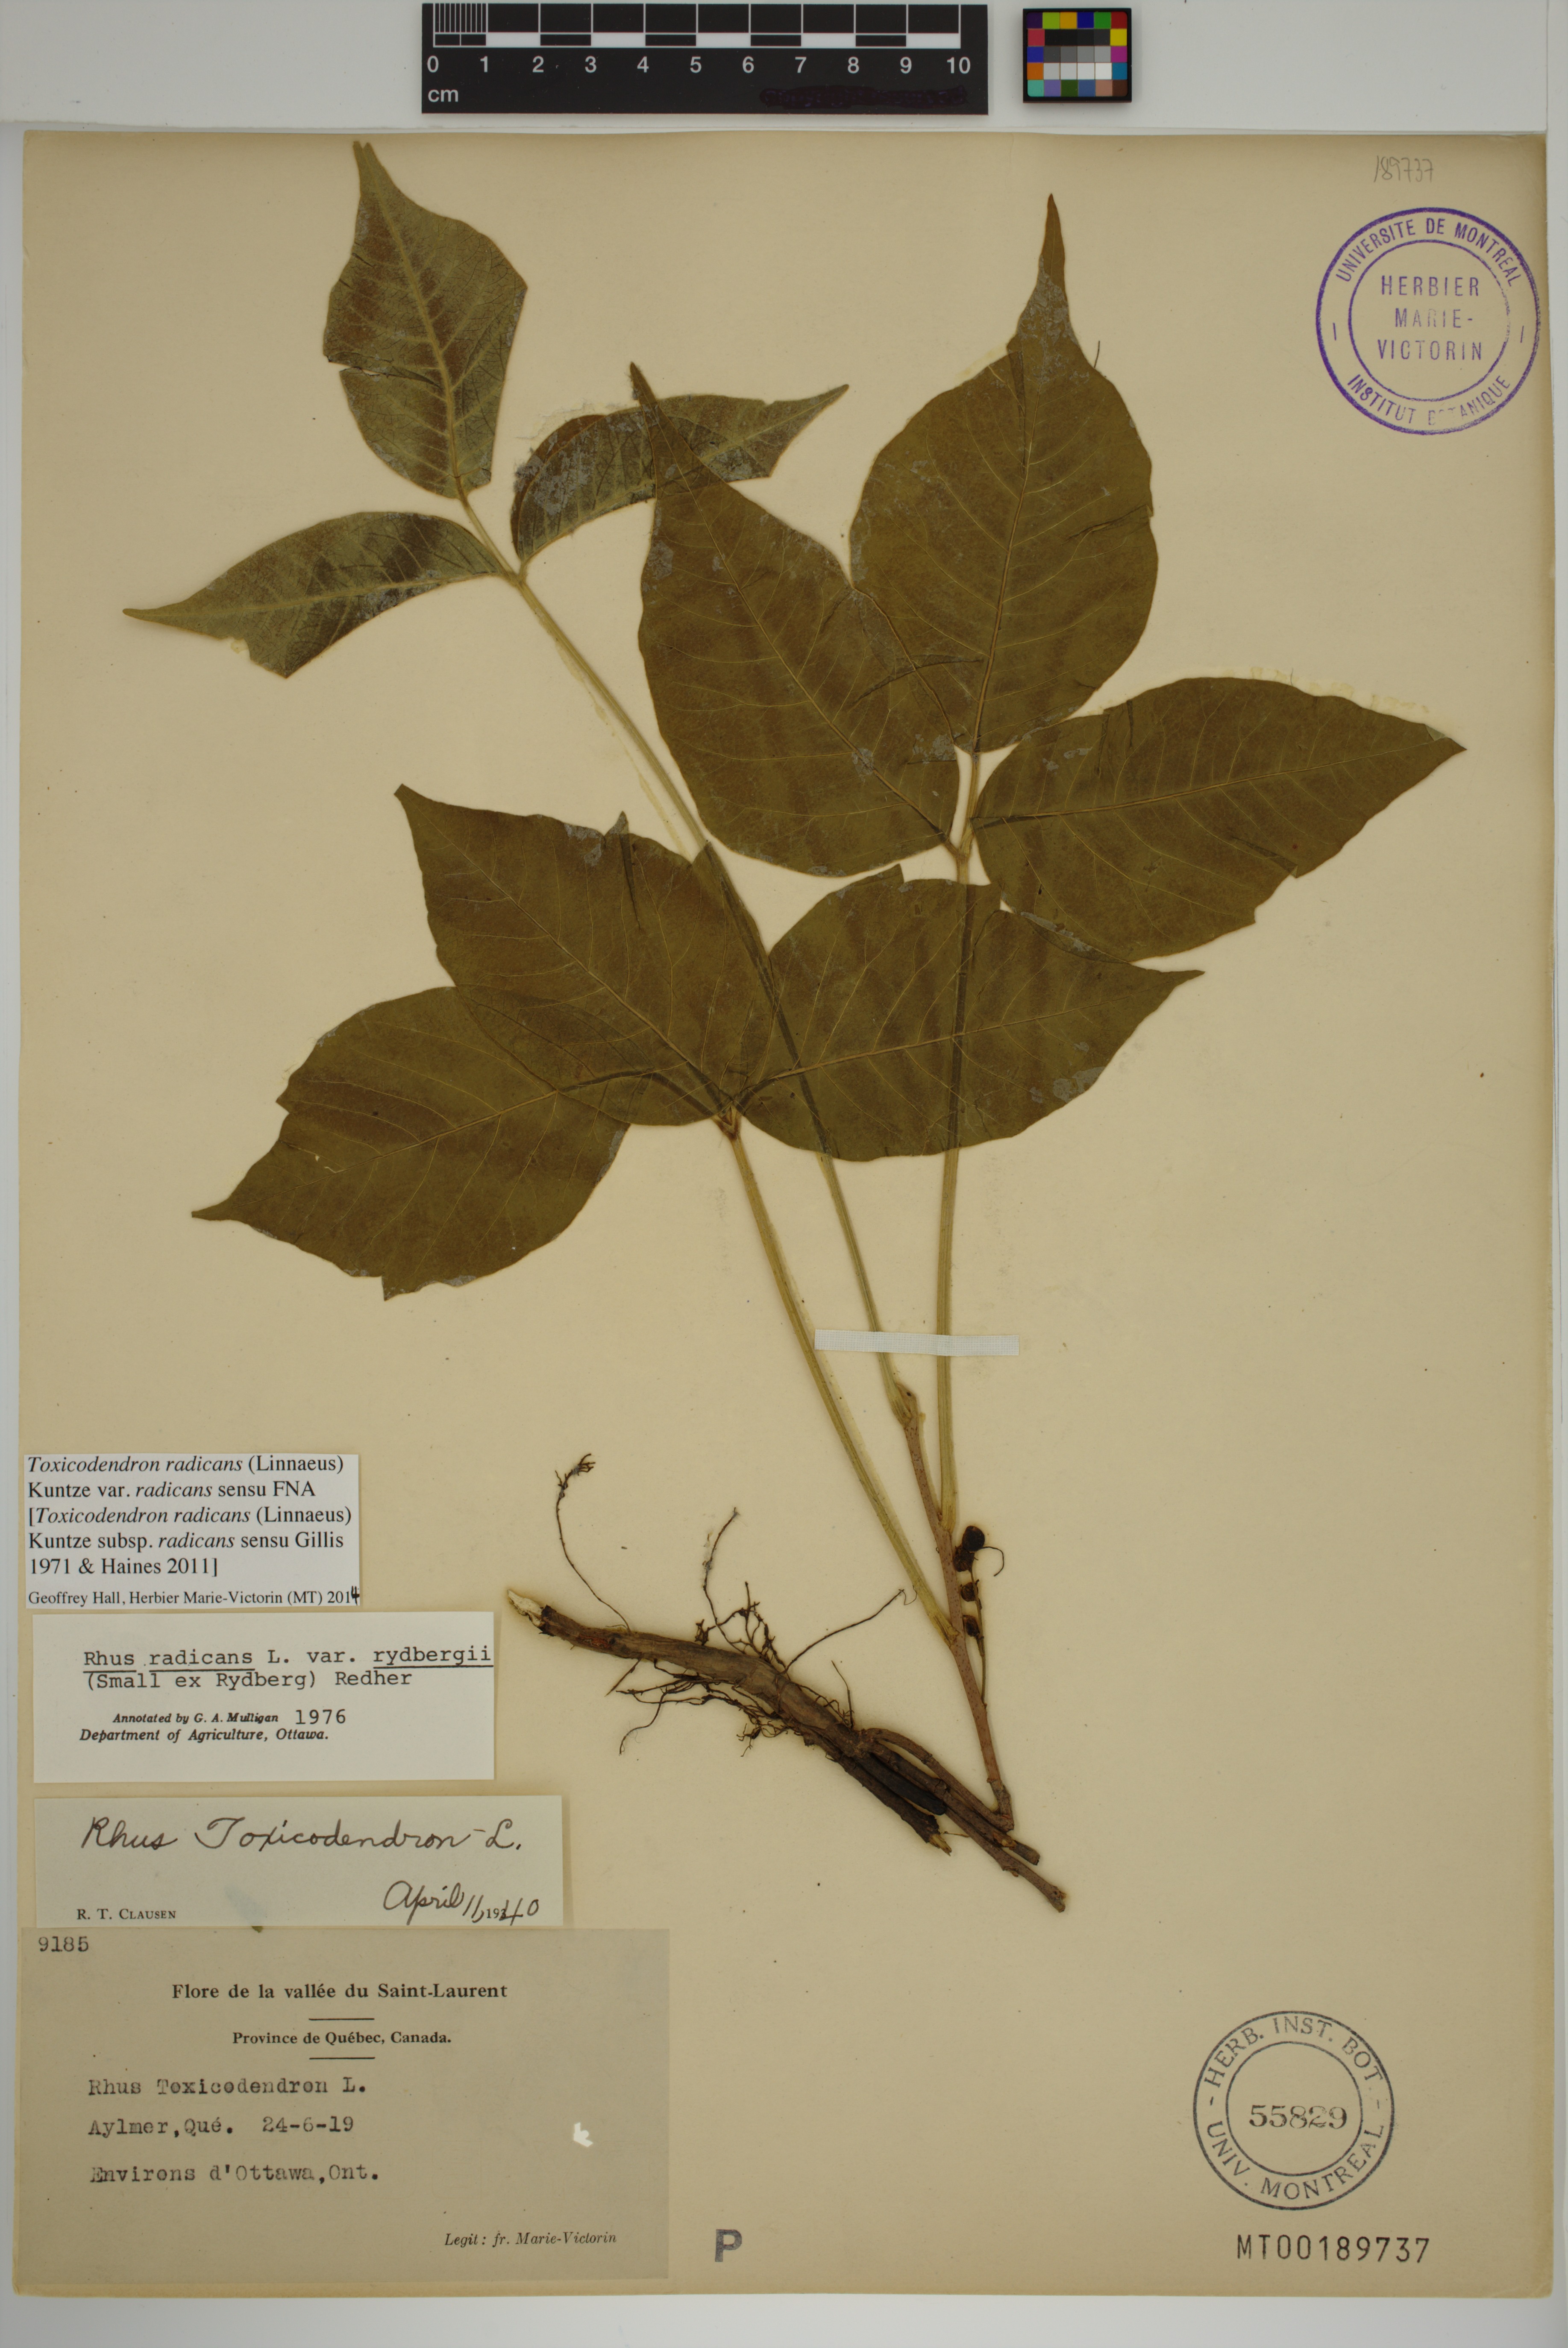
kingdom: Plantae
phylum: Tracheophyta
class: Magnoliopsida
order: Sapindales
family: Anacardiaceae
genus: Toxicodendron
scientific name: Toxicodendron radicans
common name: Poison ivy
